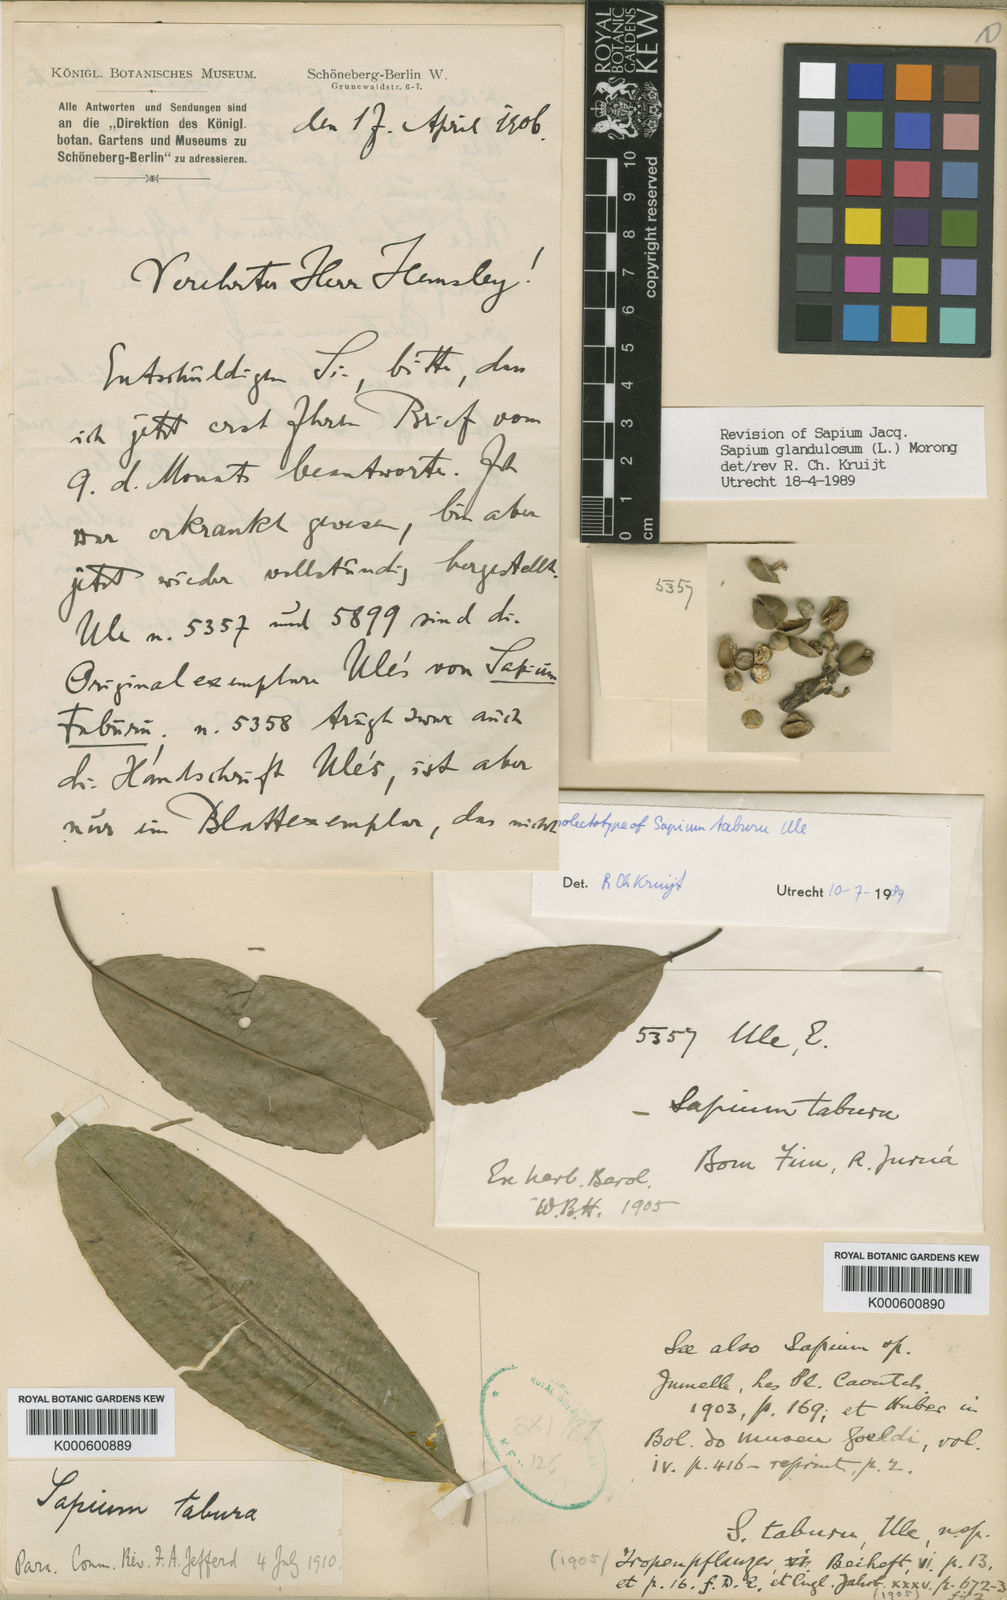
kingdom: Plantae
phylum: Tracheophyta
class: Magnoliopsida
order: Malpighiales
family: Euphorbiaceae
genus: Sapium
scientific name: Sapium glandulosum
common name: Milktree
